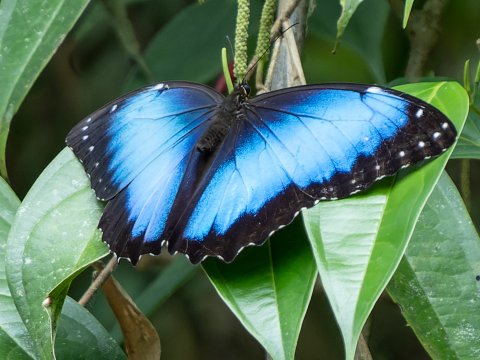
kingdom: Animalia
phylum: Arthropoda
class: Insecta
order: Lepidoptera
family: Nymphalidae
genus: Morpho
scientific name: Morpho helenor
